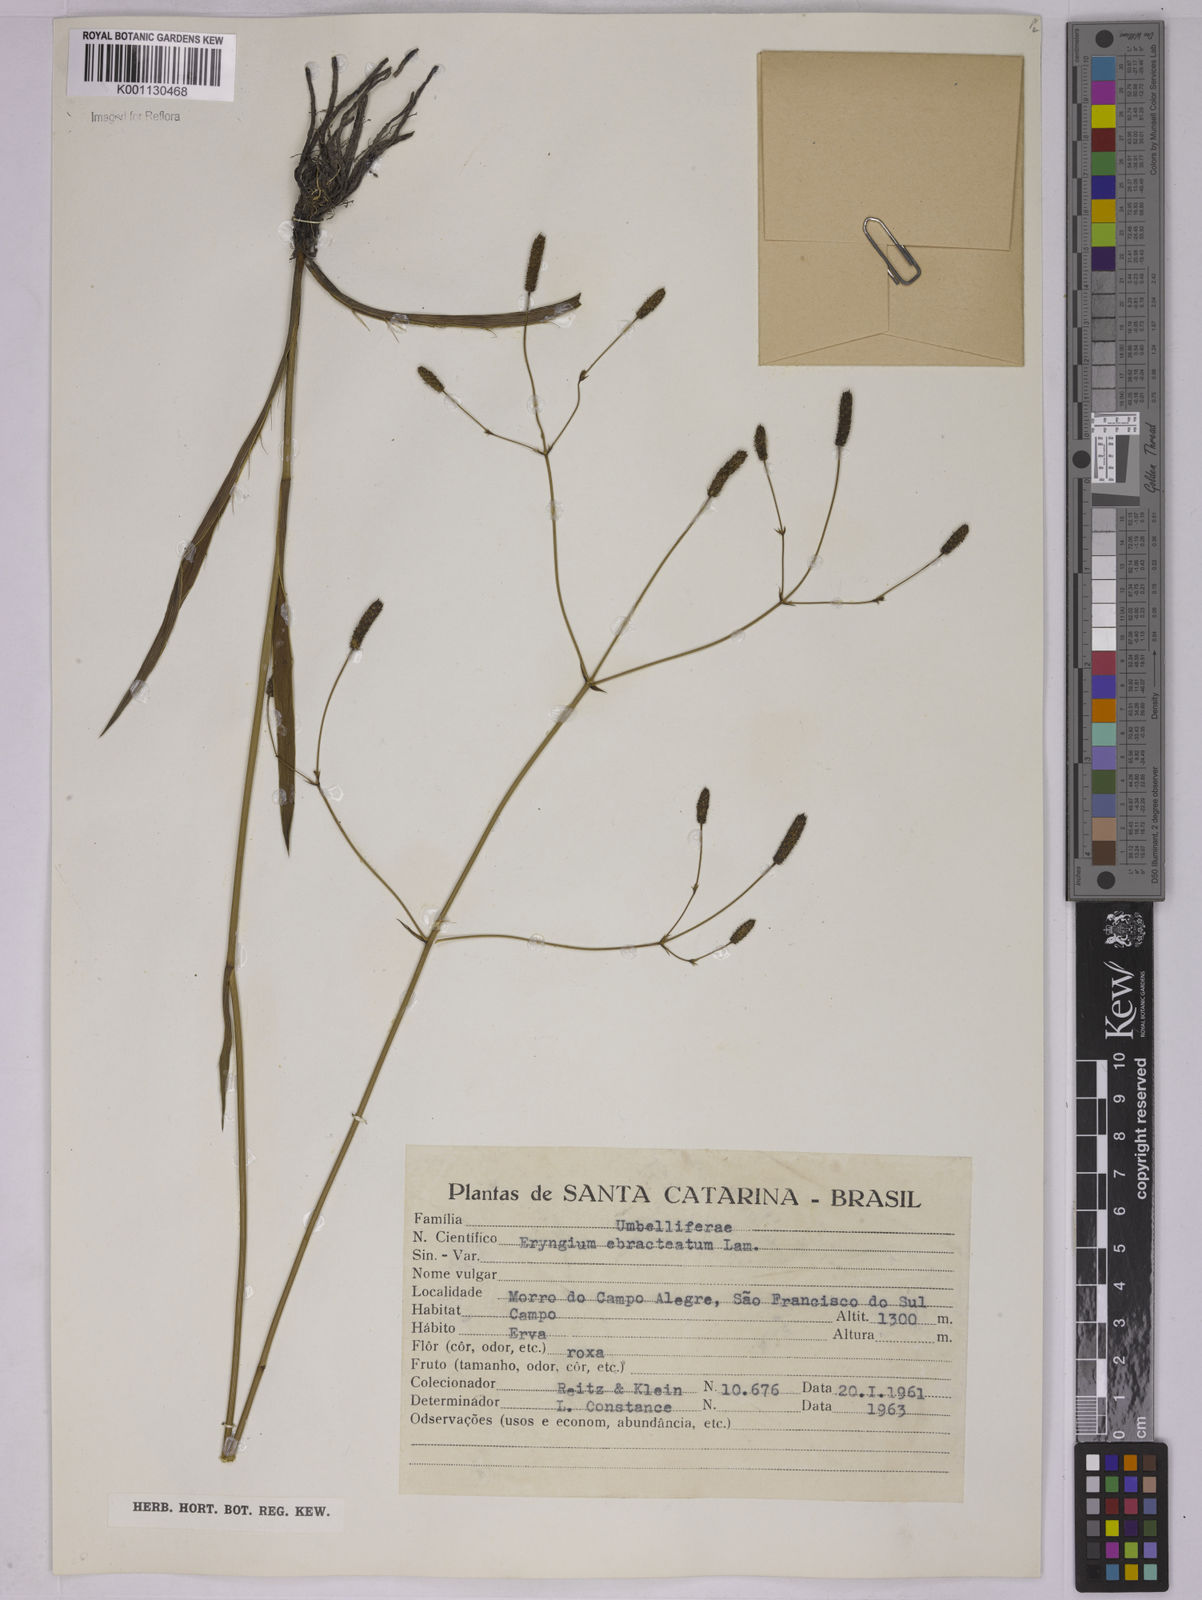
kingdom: Plantae
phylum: Tracheophyta
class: Magnoliopsida
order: Apiales
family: Apiaceae
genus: Eryngium
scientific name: Eryngium ebracteatum
